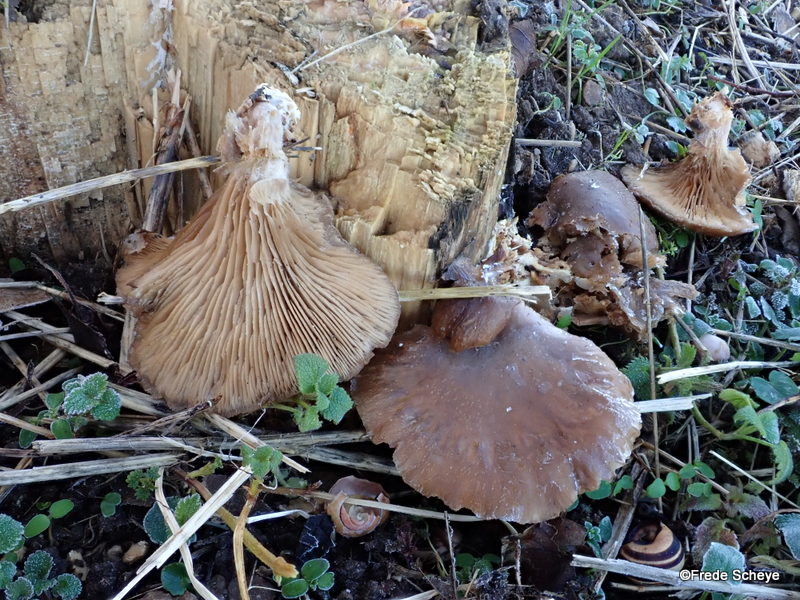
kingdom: Fungi
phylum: Basidiomycota
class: Agaricomycetes
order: Agaricales
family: Pleurotaceae
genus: Pleurotus
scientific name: Pleurotus ostreatus
